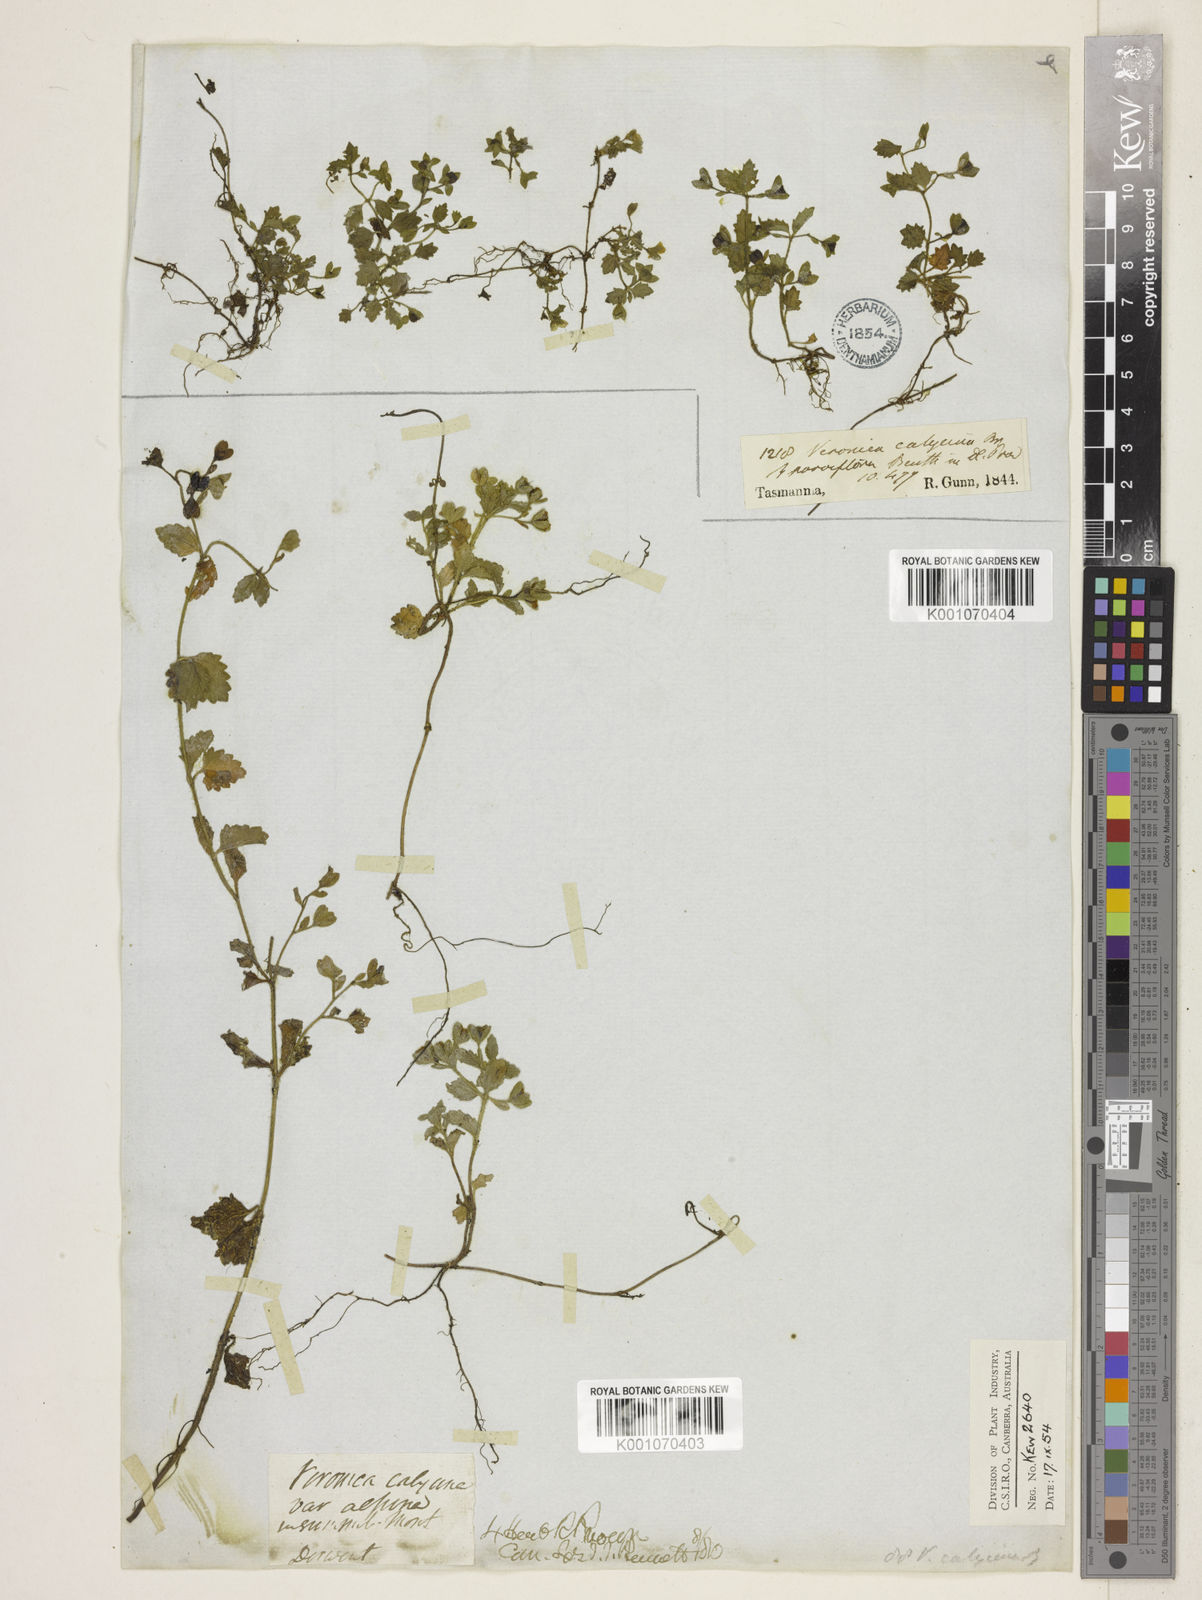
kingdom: Plantae
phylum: Tracheophyta
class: Magnoliopsida
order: Lamiales
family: Plantaginaceae
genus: Veronica
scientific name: Veronica calycina
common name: Cup speedwell
